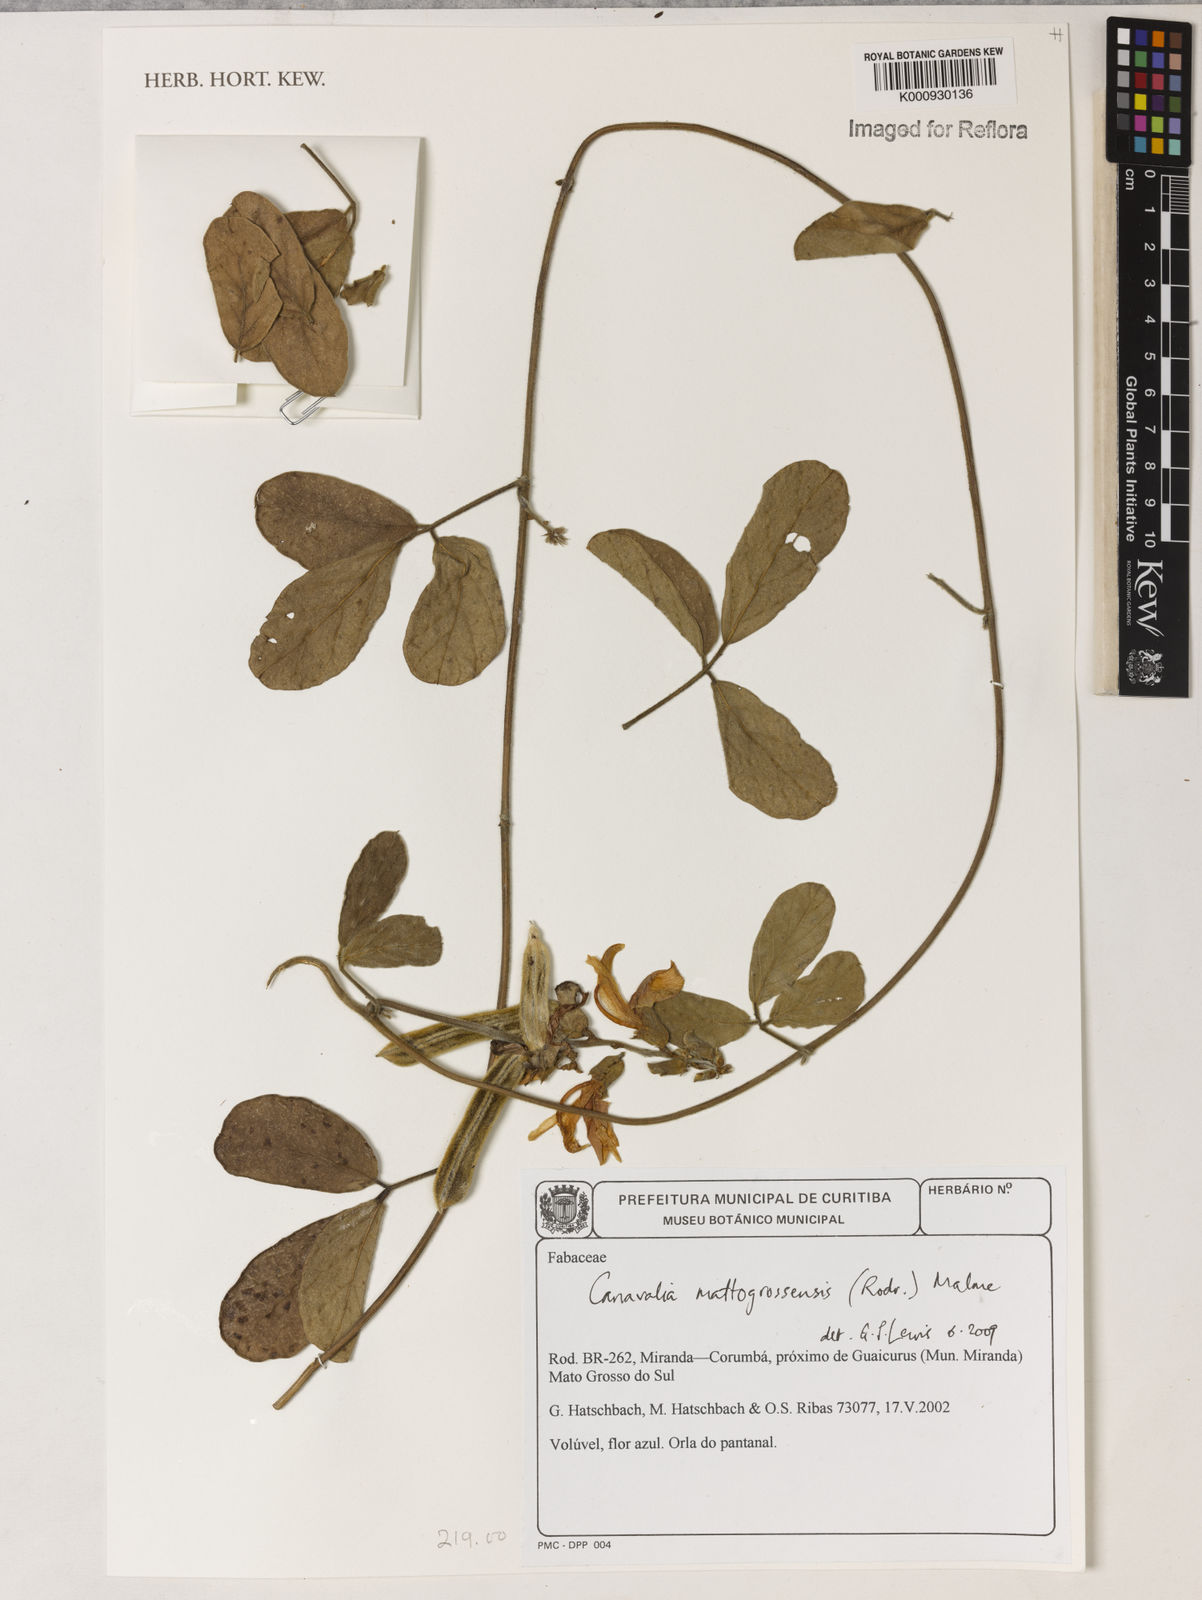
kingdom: Plantae
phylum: Tracheophyta
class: Magnoliopsida
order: Fabales
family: Fabaceae
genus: Canavalia
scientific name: Canavalia mattogrossensis
